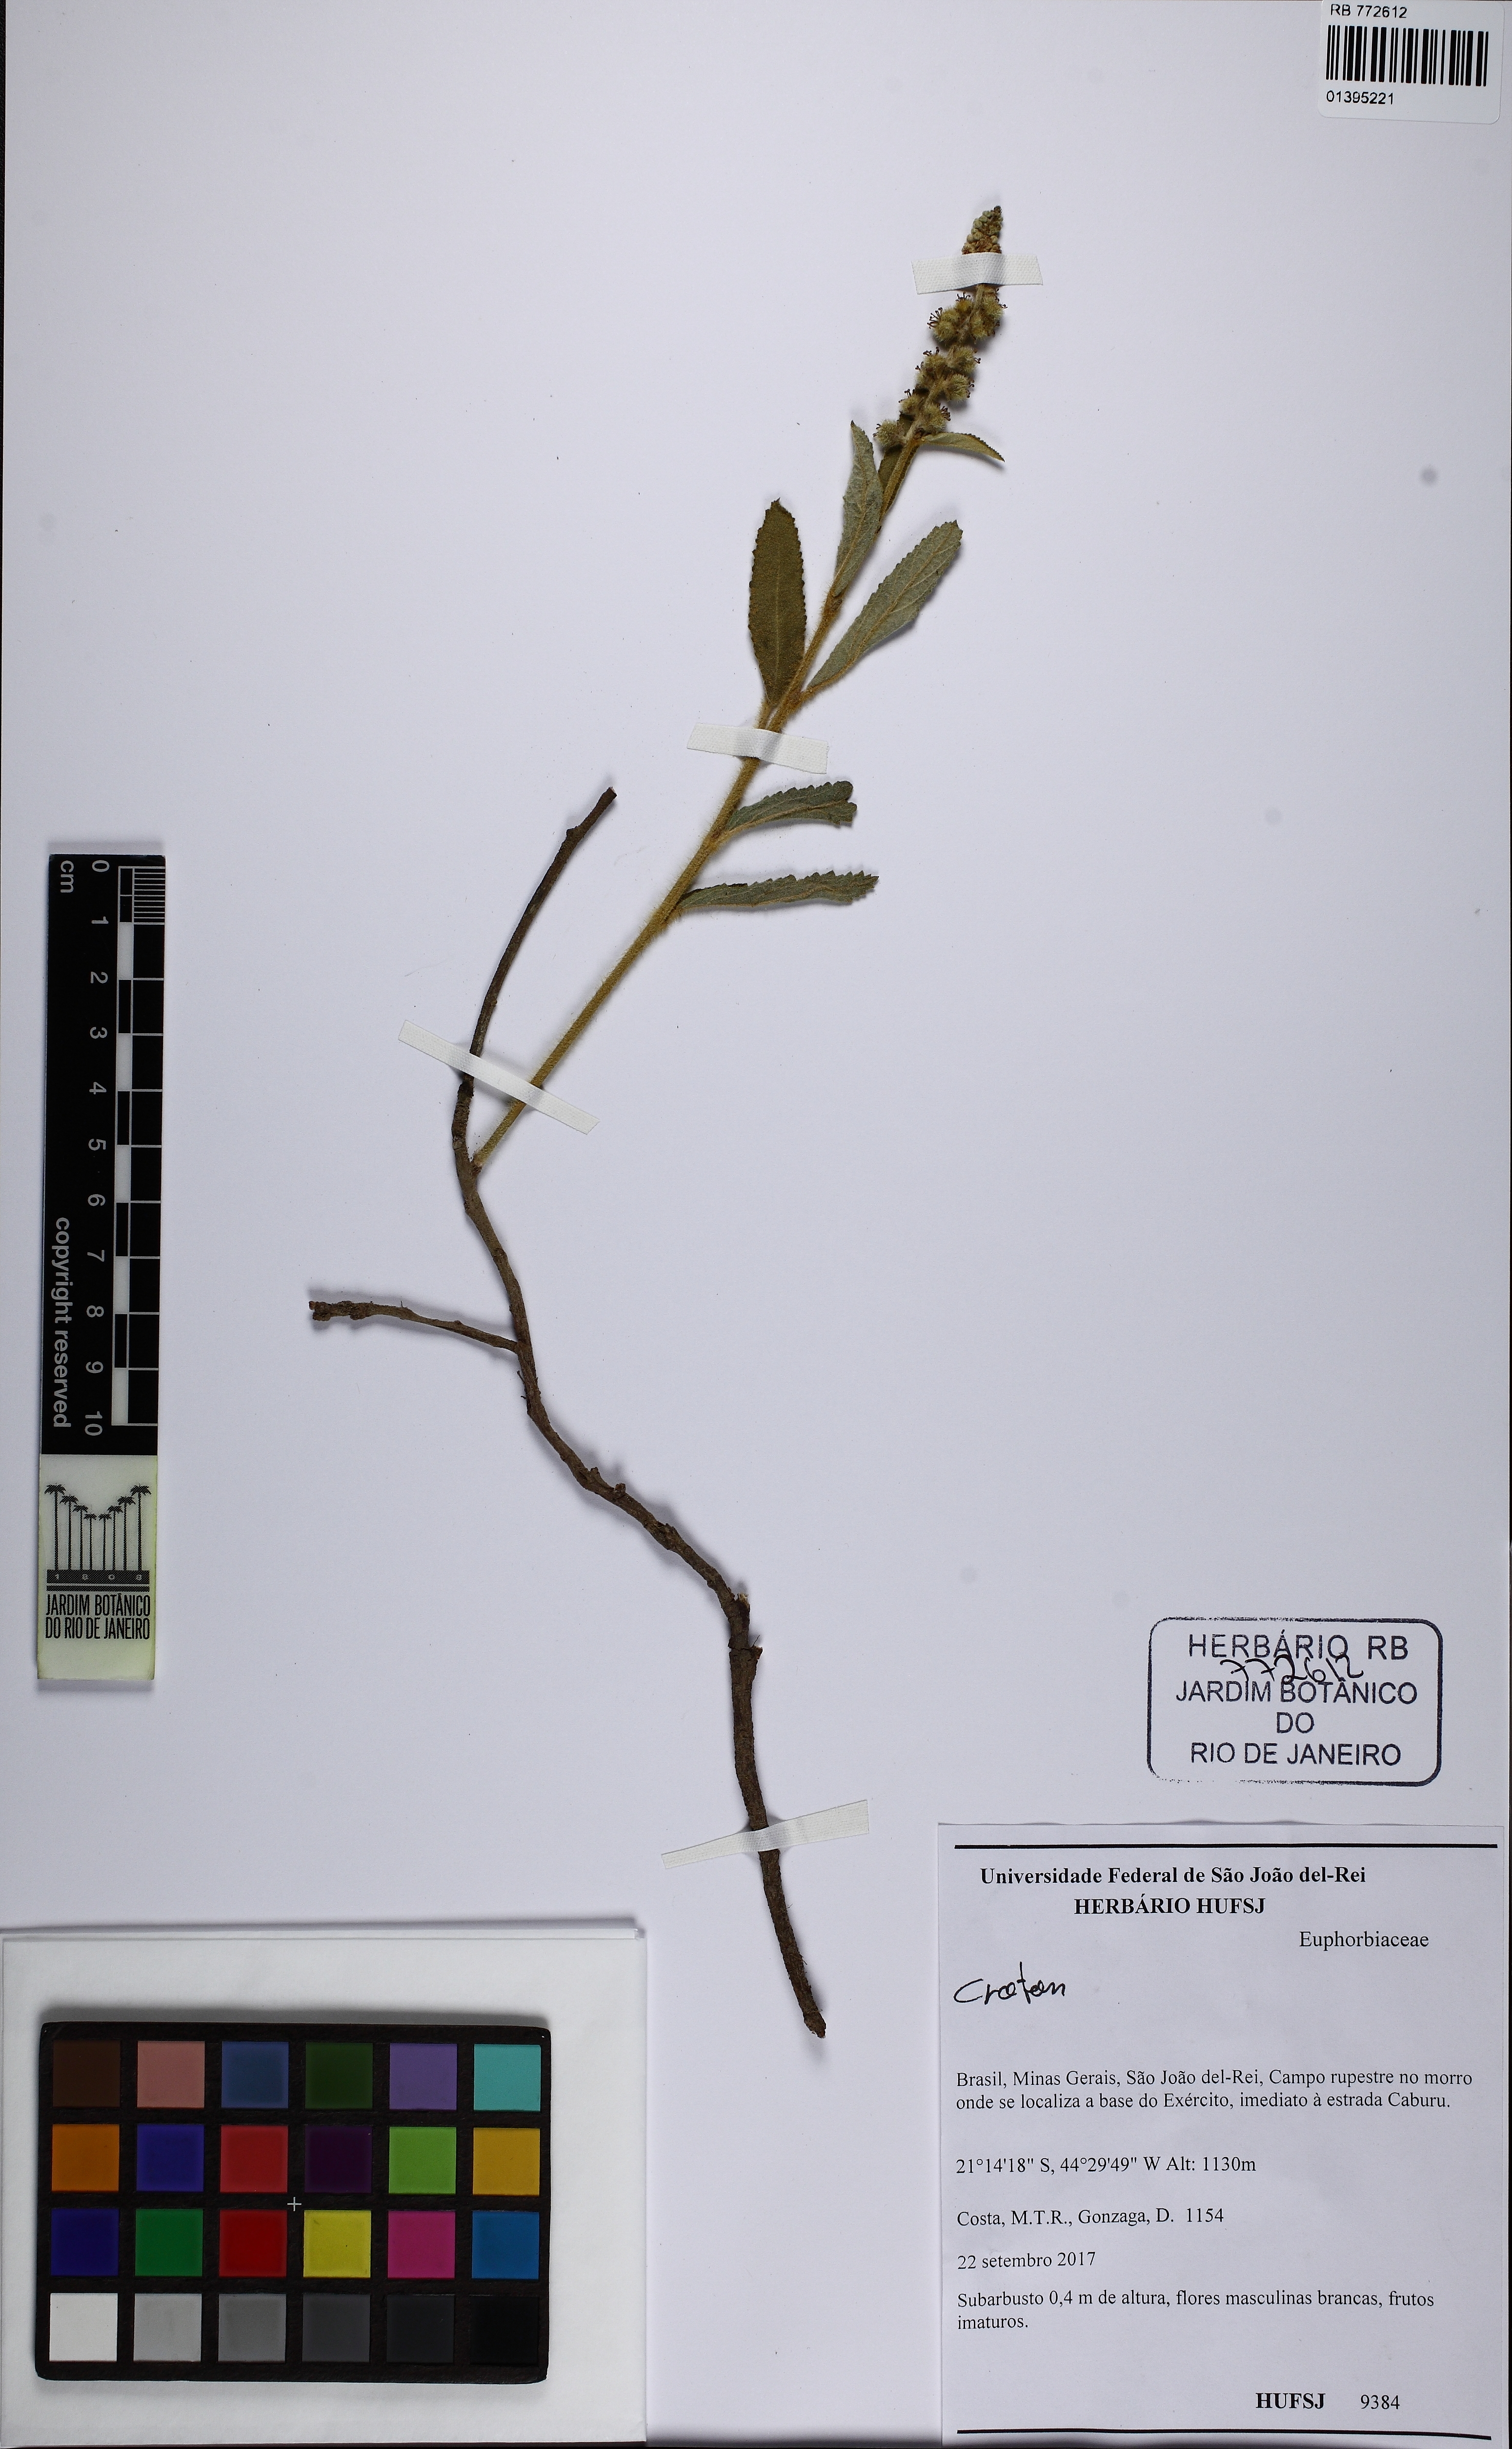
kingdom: Plantae
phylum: Tracheophyta
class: Magnoliopsida
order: Malpighiales
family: Euphorbiaceae
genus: Croton
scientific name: Croton antisyphiliticus
